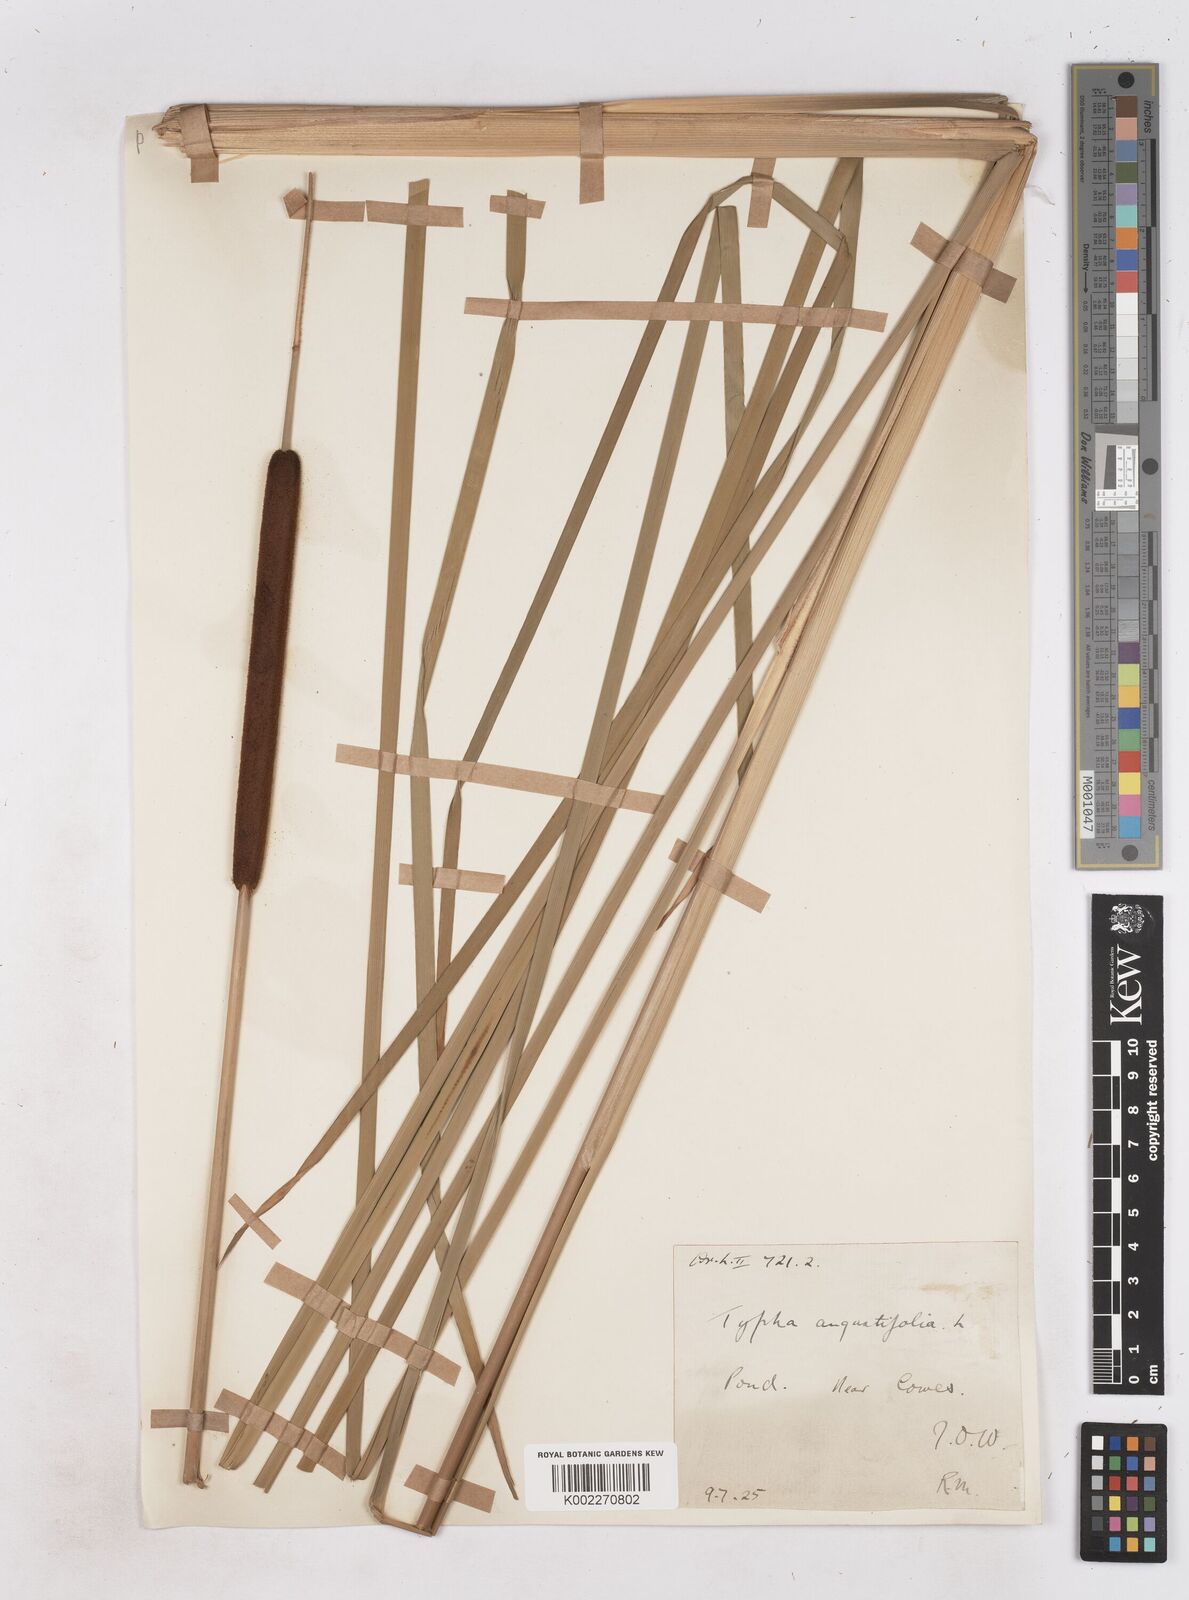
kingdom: Plantae
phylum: Tracheophyta
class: Liliopsida
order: Poales
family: Typhaceae
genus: Typha
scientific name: Typha angustifolia
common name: Lesser bulrush
